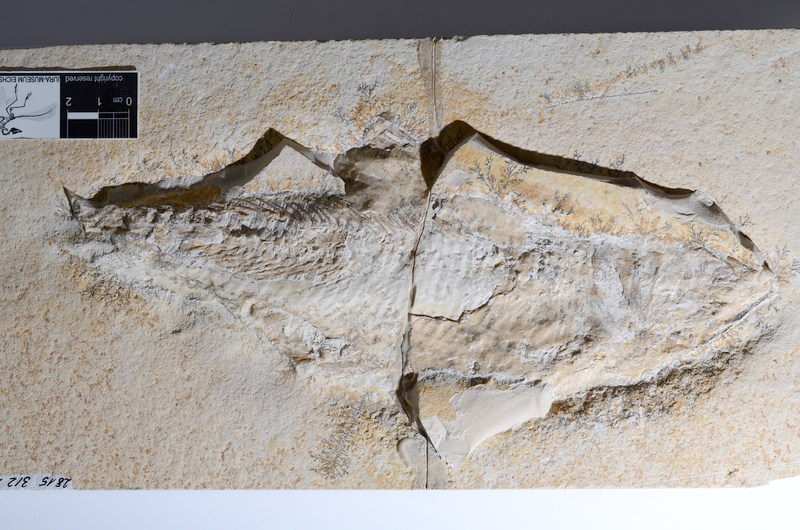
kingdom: Animalia
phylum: Chordata
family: Ankylophoridae
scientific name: Ankylophoridae
